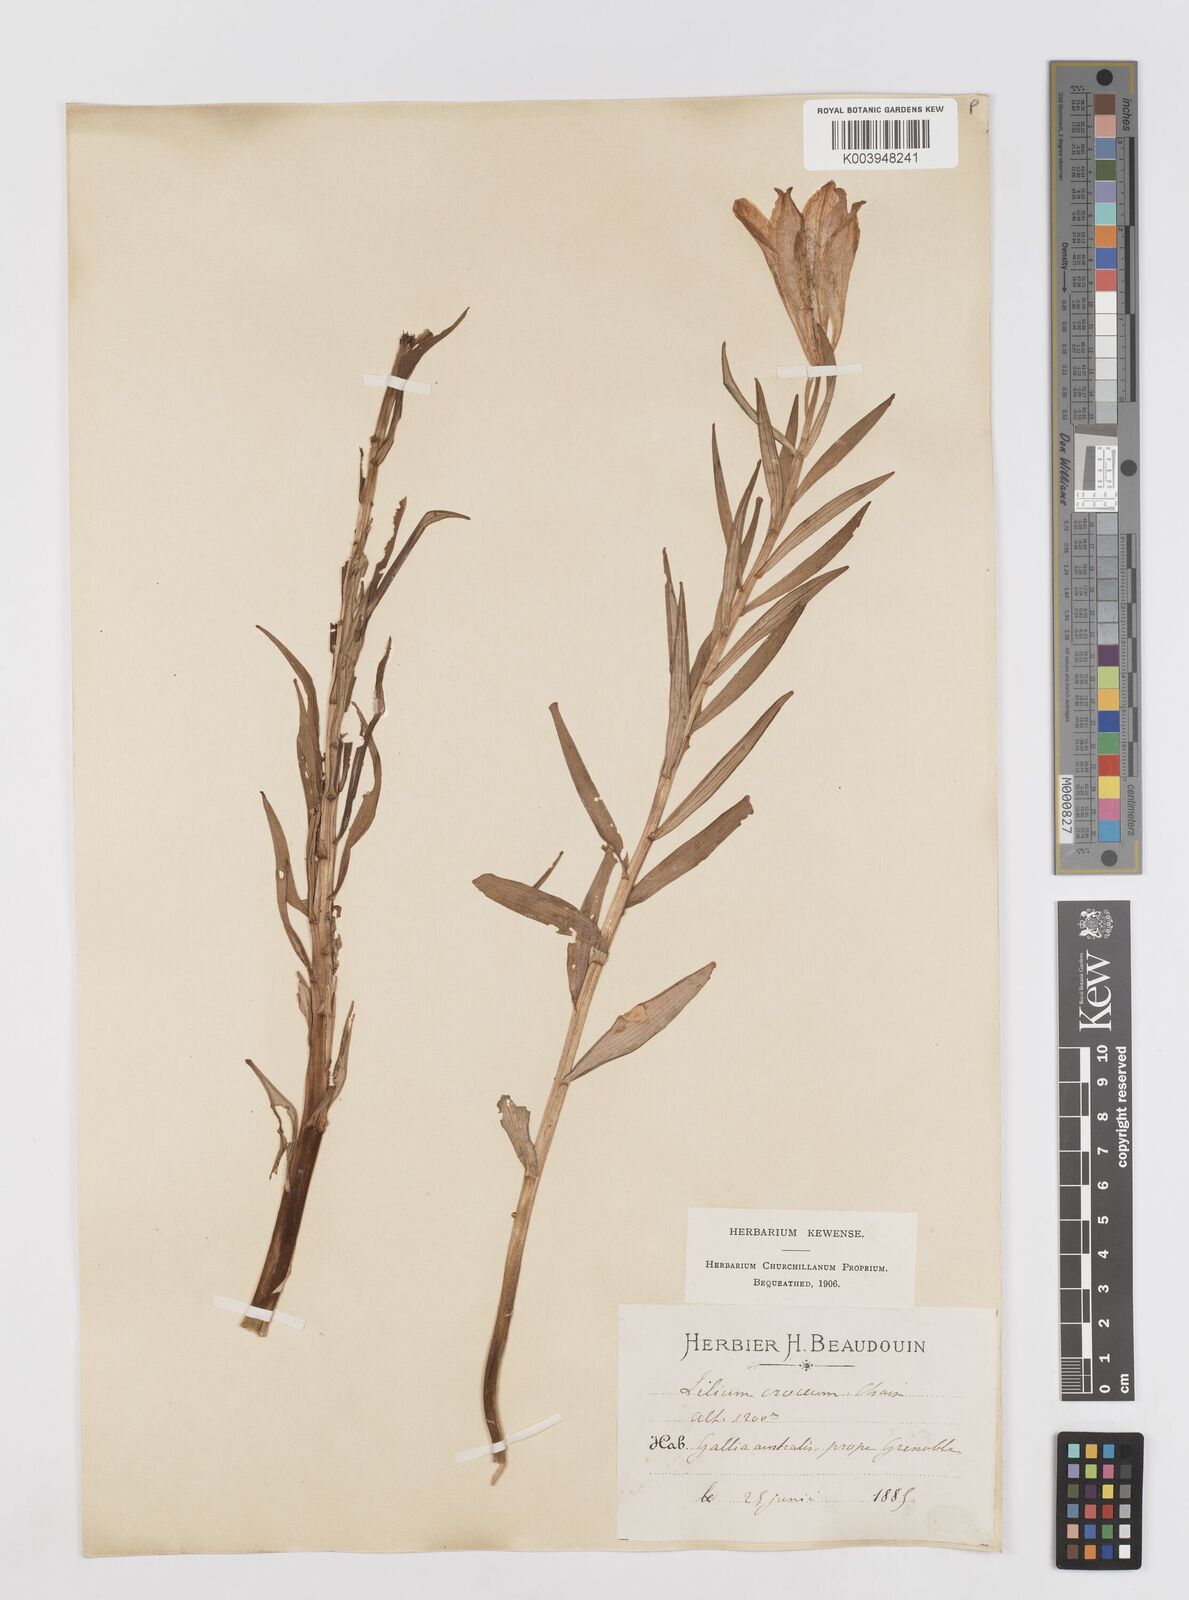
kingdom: Plantae
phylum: Tracheophyta
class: Liliopsida
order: Liliales
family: Liliaceae
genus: Lilium
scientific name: Lilium bulbiferum
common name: Orange lily
